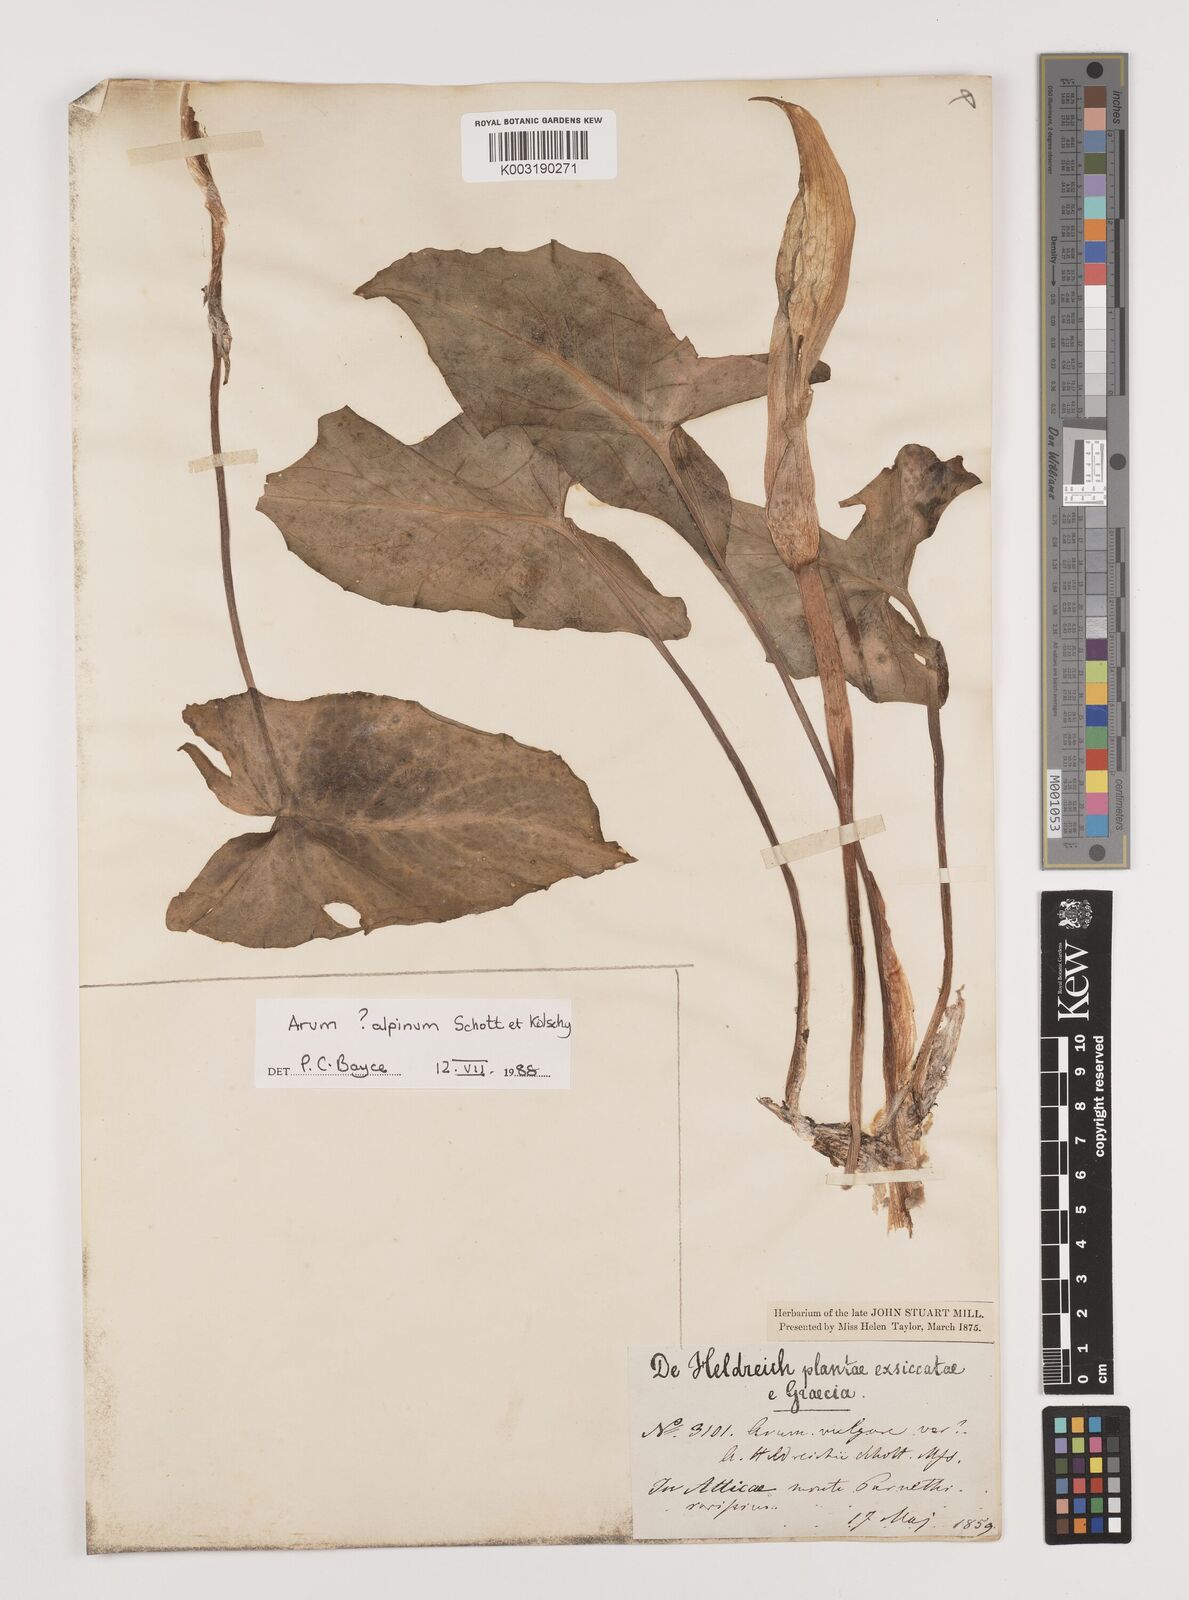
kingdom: Plantae
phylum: Tracheophyta
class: Liliopsida
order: Alismatales
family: Araceae
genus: Arum
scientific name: Arum cylindraceum
